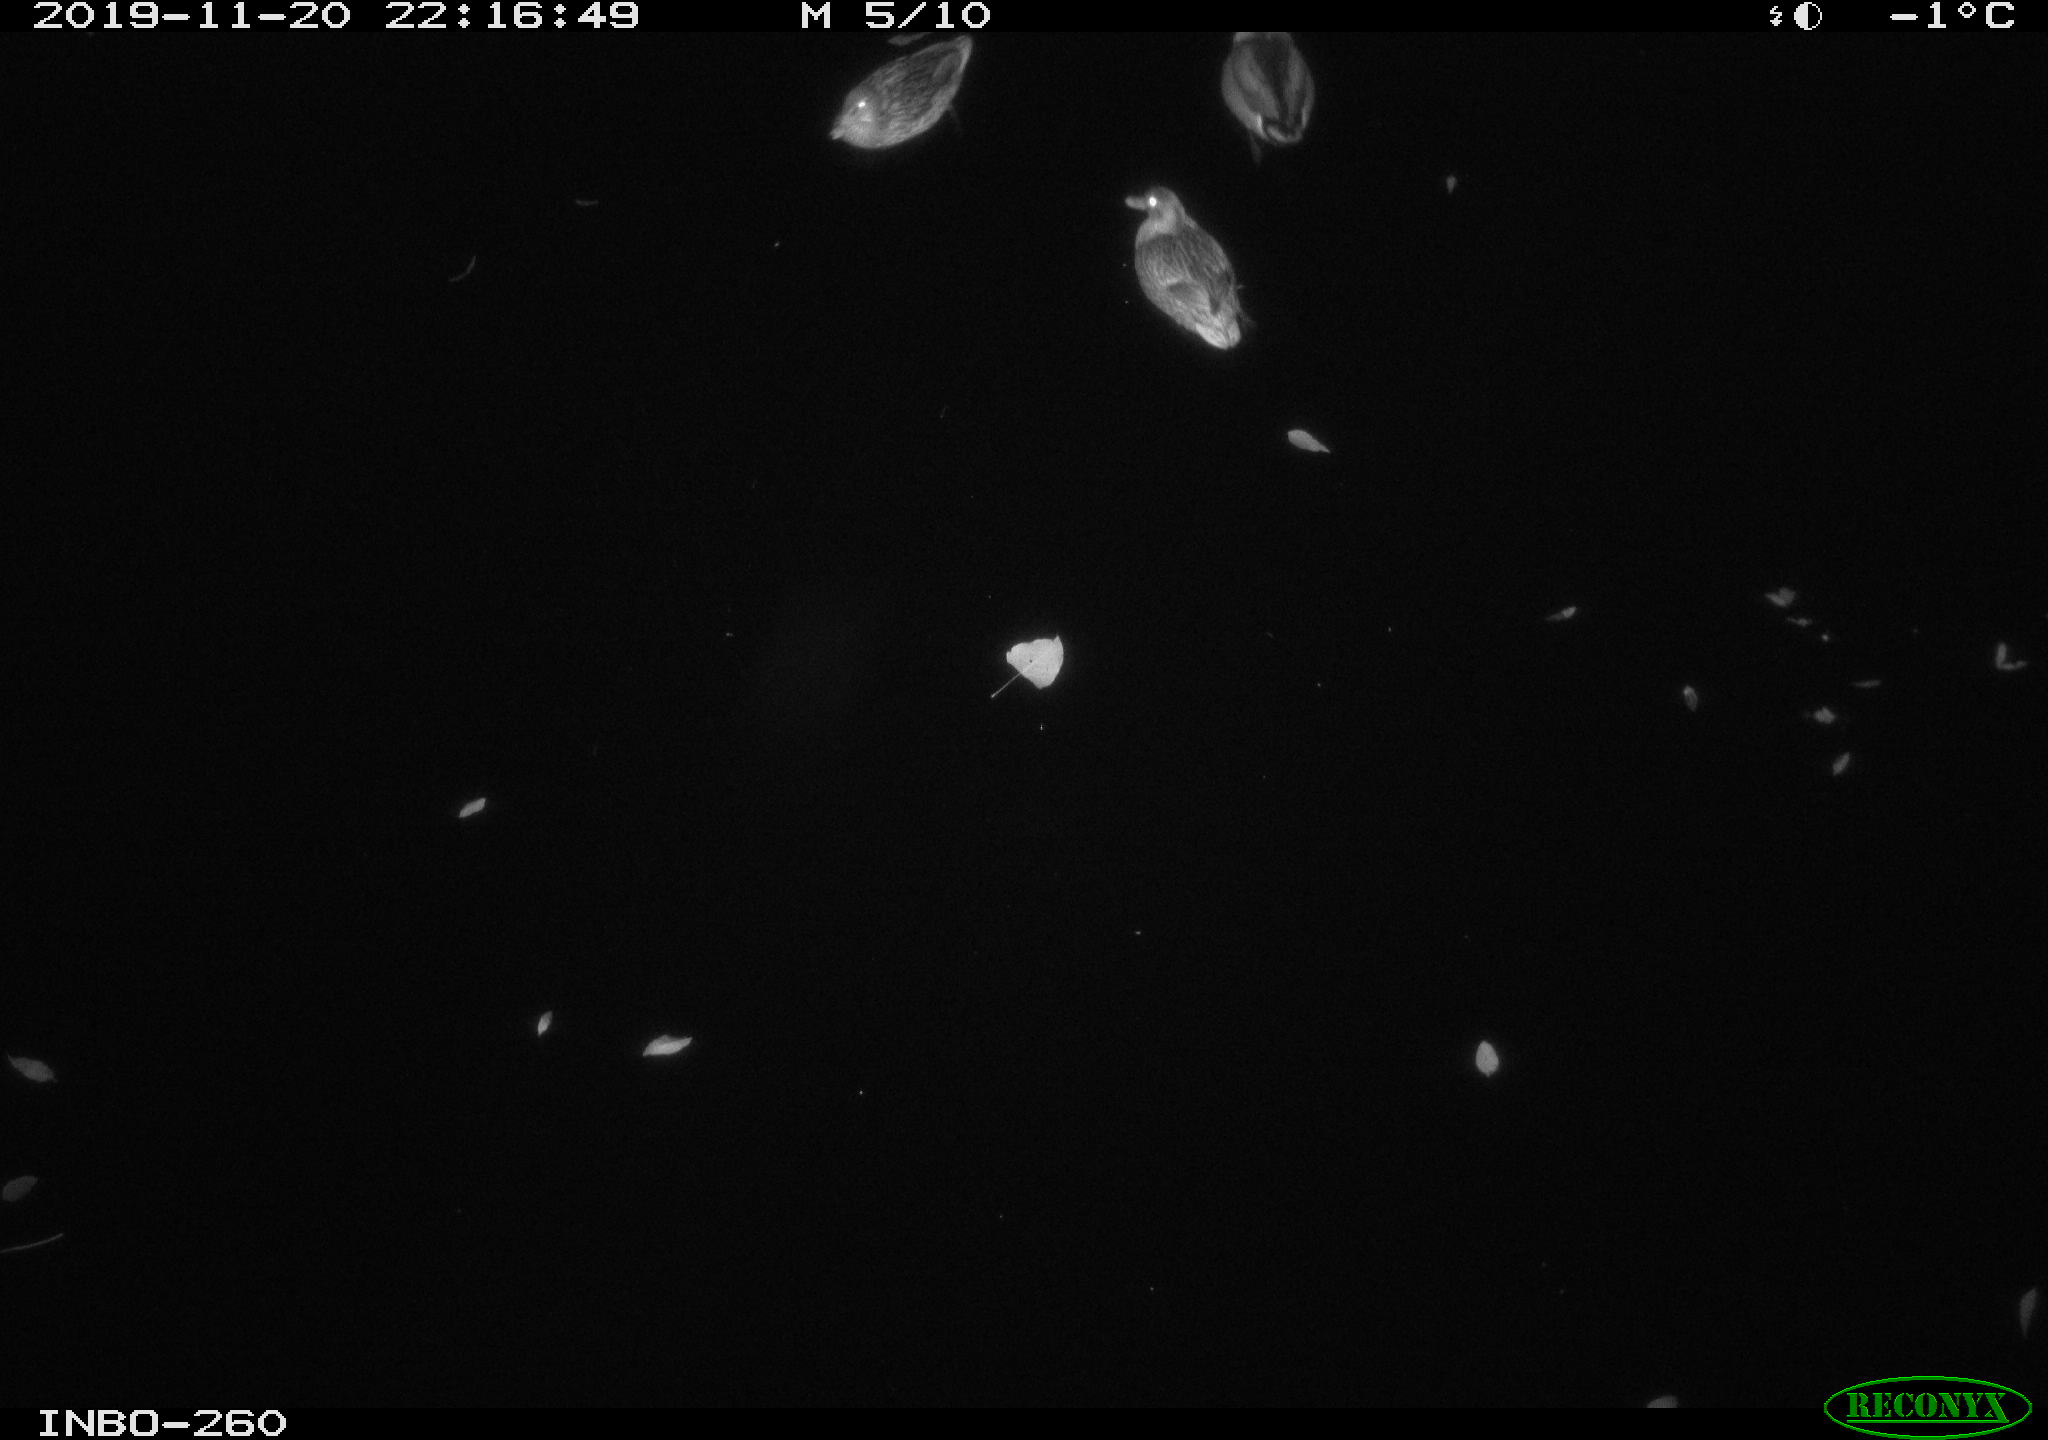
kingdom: Animalia
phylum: Chordata
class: Aves
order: Anseriformes
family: Anatidae
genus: Anas
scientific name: Anas platyrhynchos
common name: Mallard
